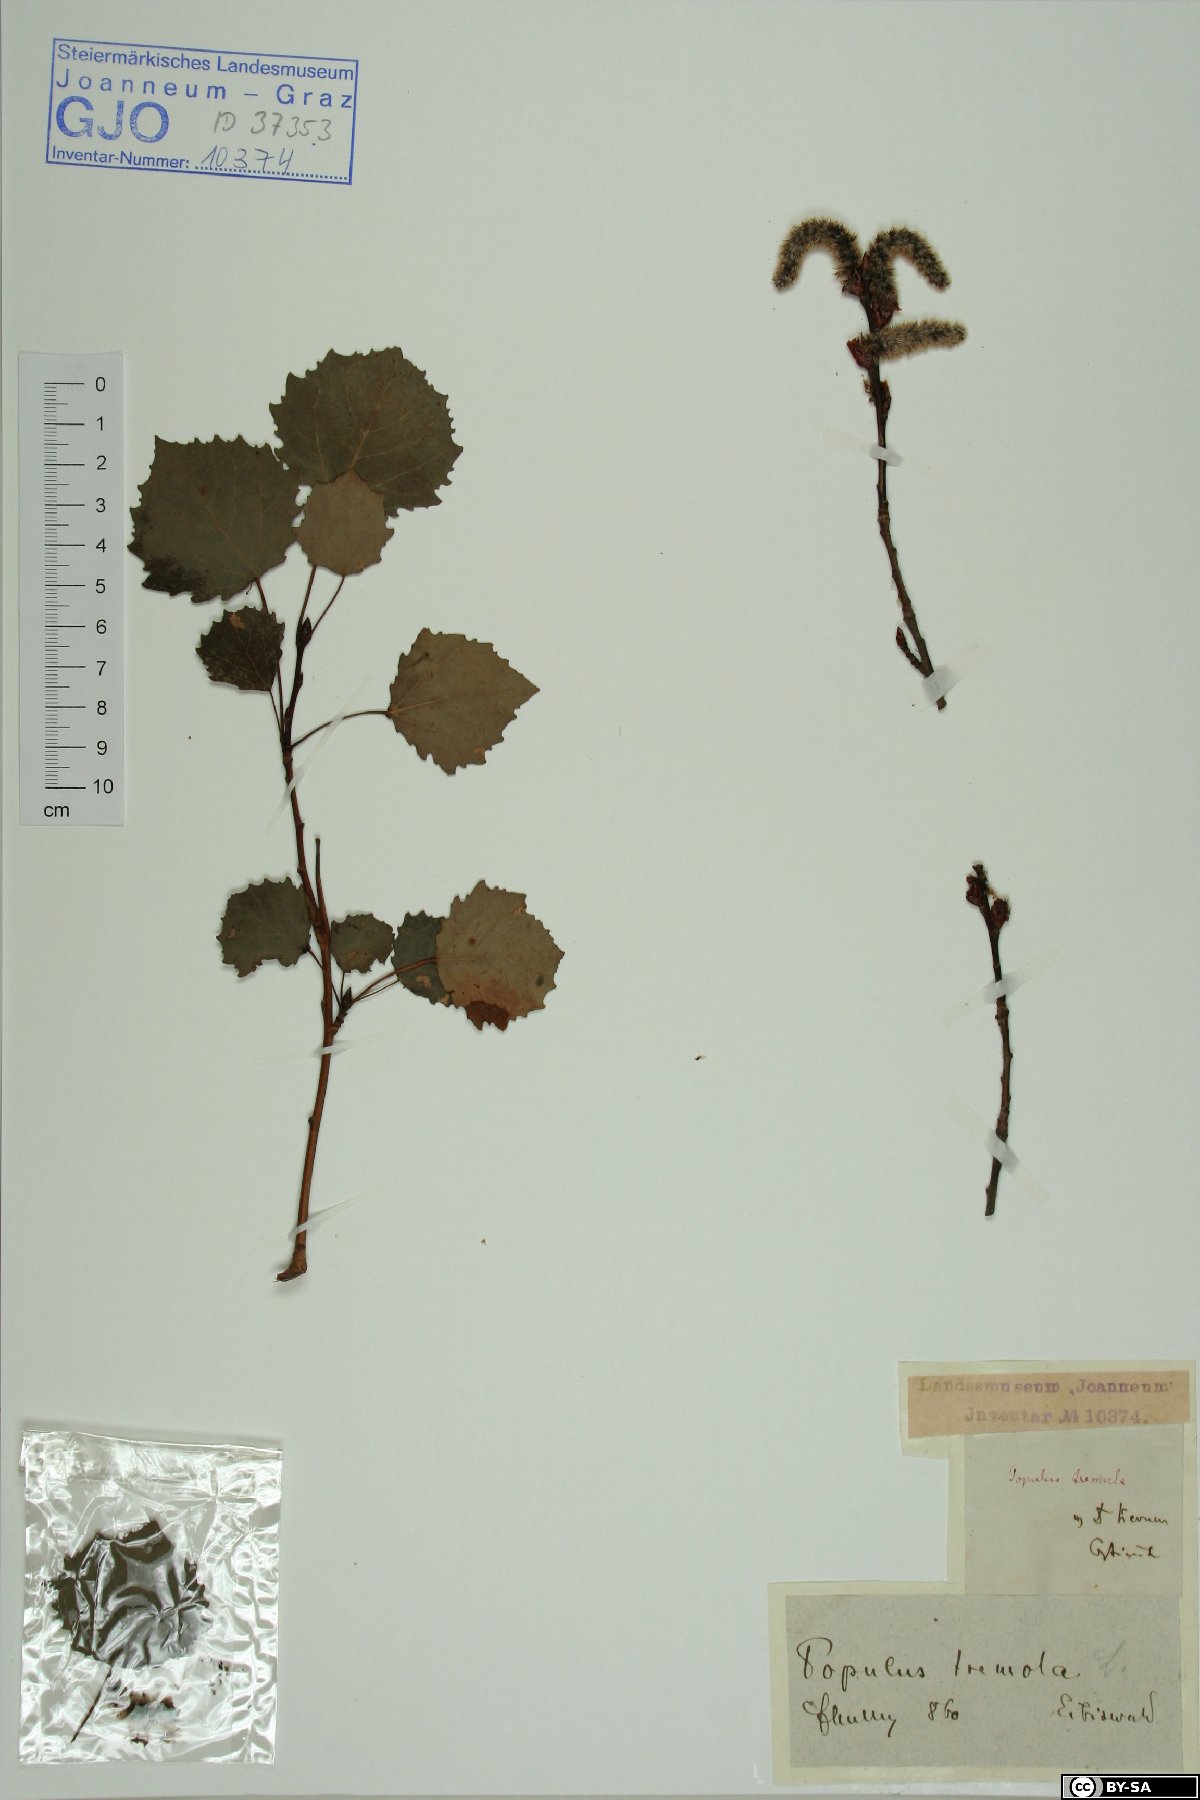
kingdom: Plantae
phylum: Tracheophyta
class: Magnoliopsida
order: Malpighiales
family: Salicaceae
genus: Populus
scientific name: Populus tremula
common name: European aspen
